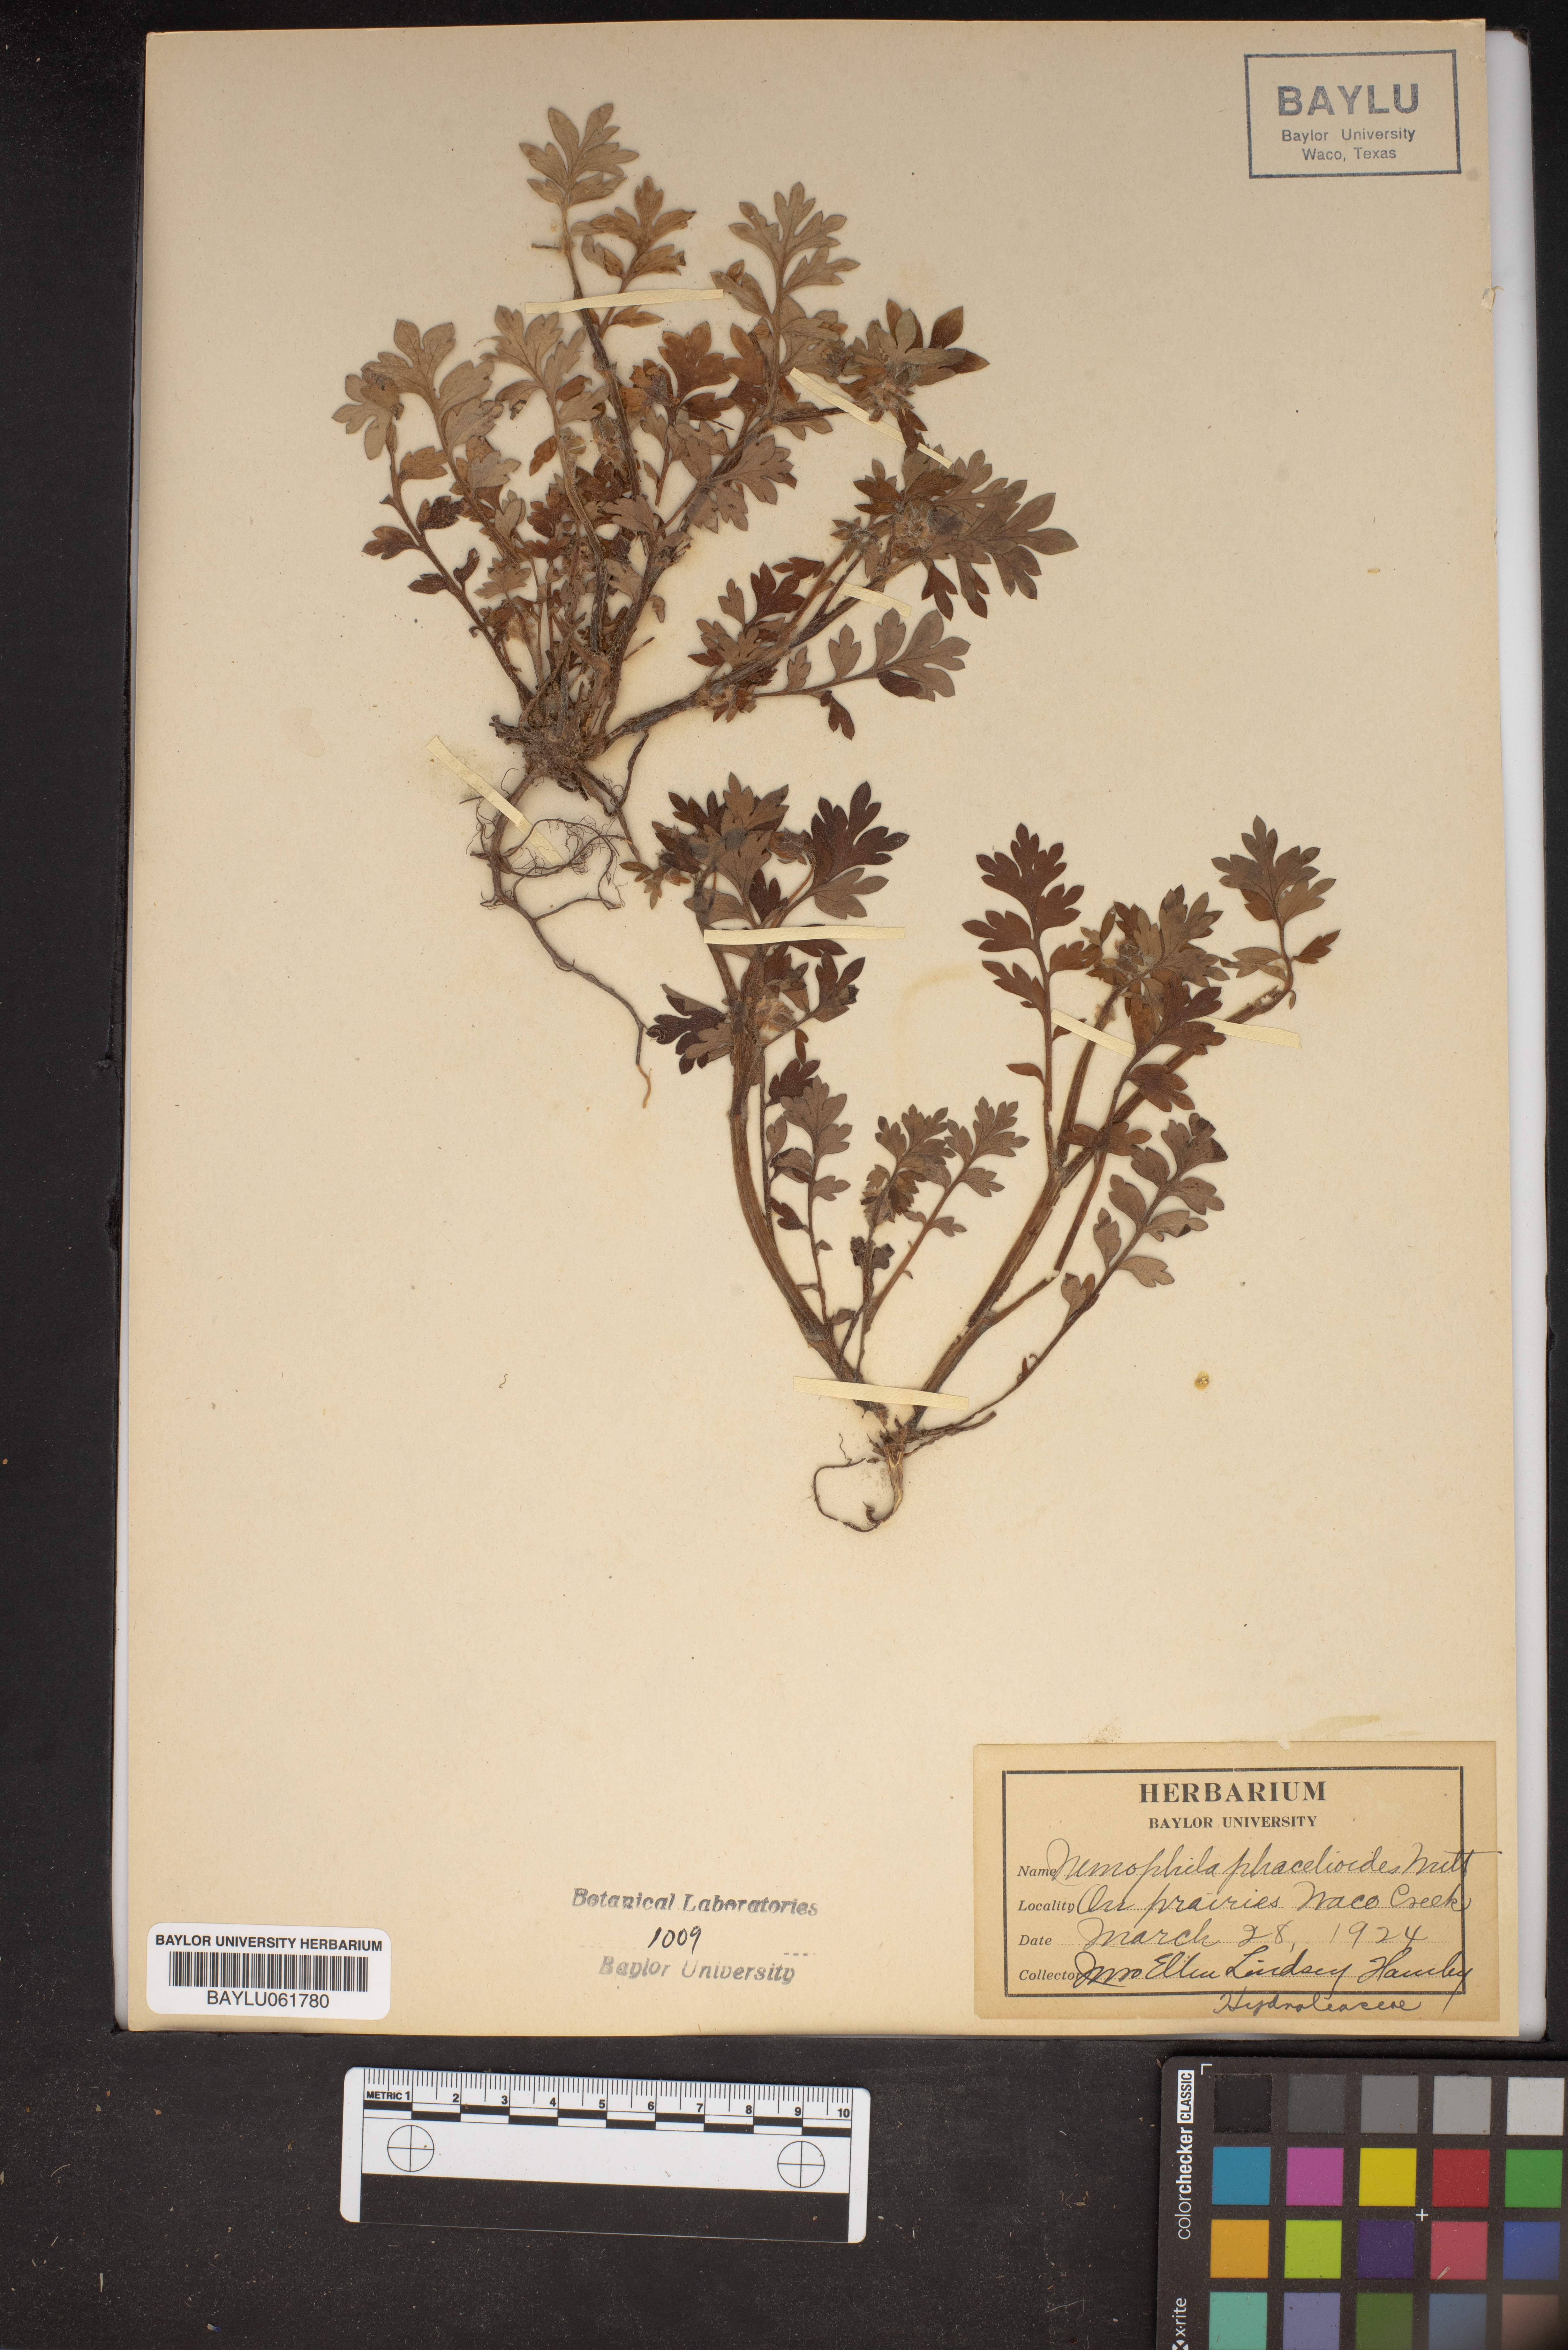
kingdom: Plantae
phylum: Tracheophyta
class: Magnoliopsida
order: Boraginales
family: Hydrophyllaceae
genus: Nemophila
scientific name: Nemophila phacelioides
